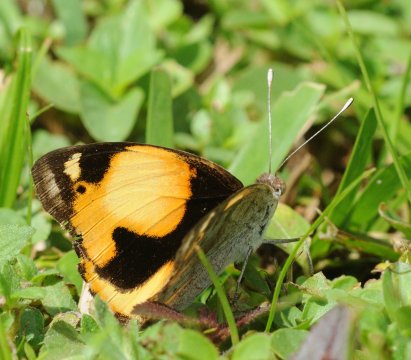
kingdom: Animalia
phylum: Arthropoda
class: Insecta
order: Lepidoptera
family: Nymphalidae
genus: Junonia
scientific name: Junonia hierta
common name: Yellow Pansy
